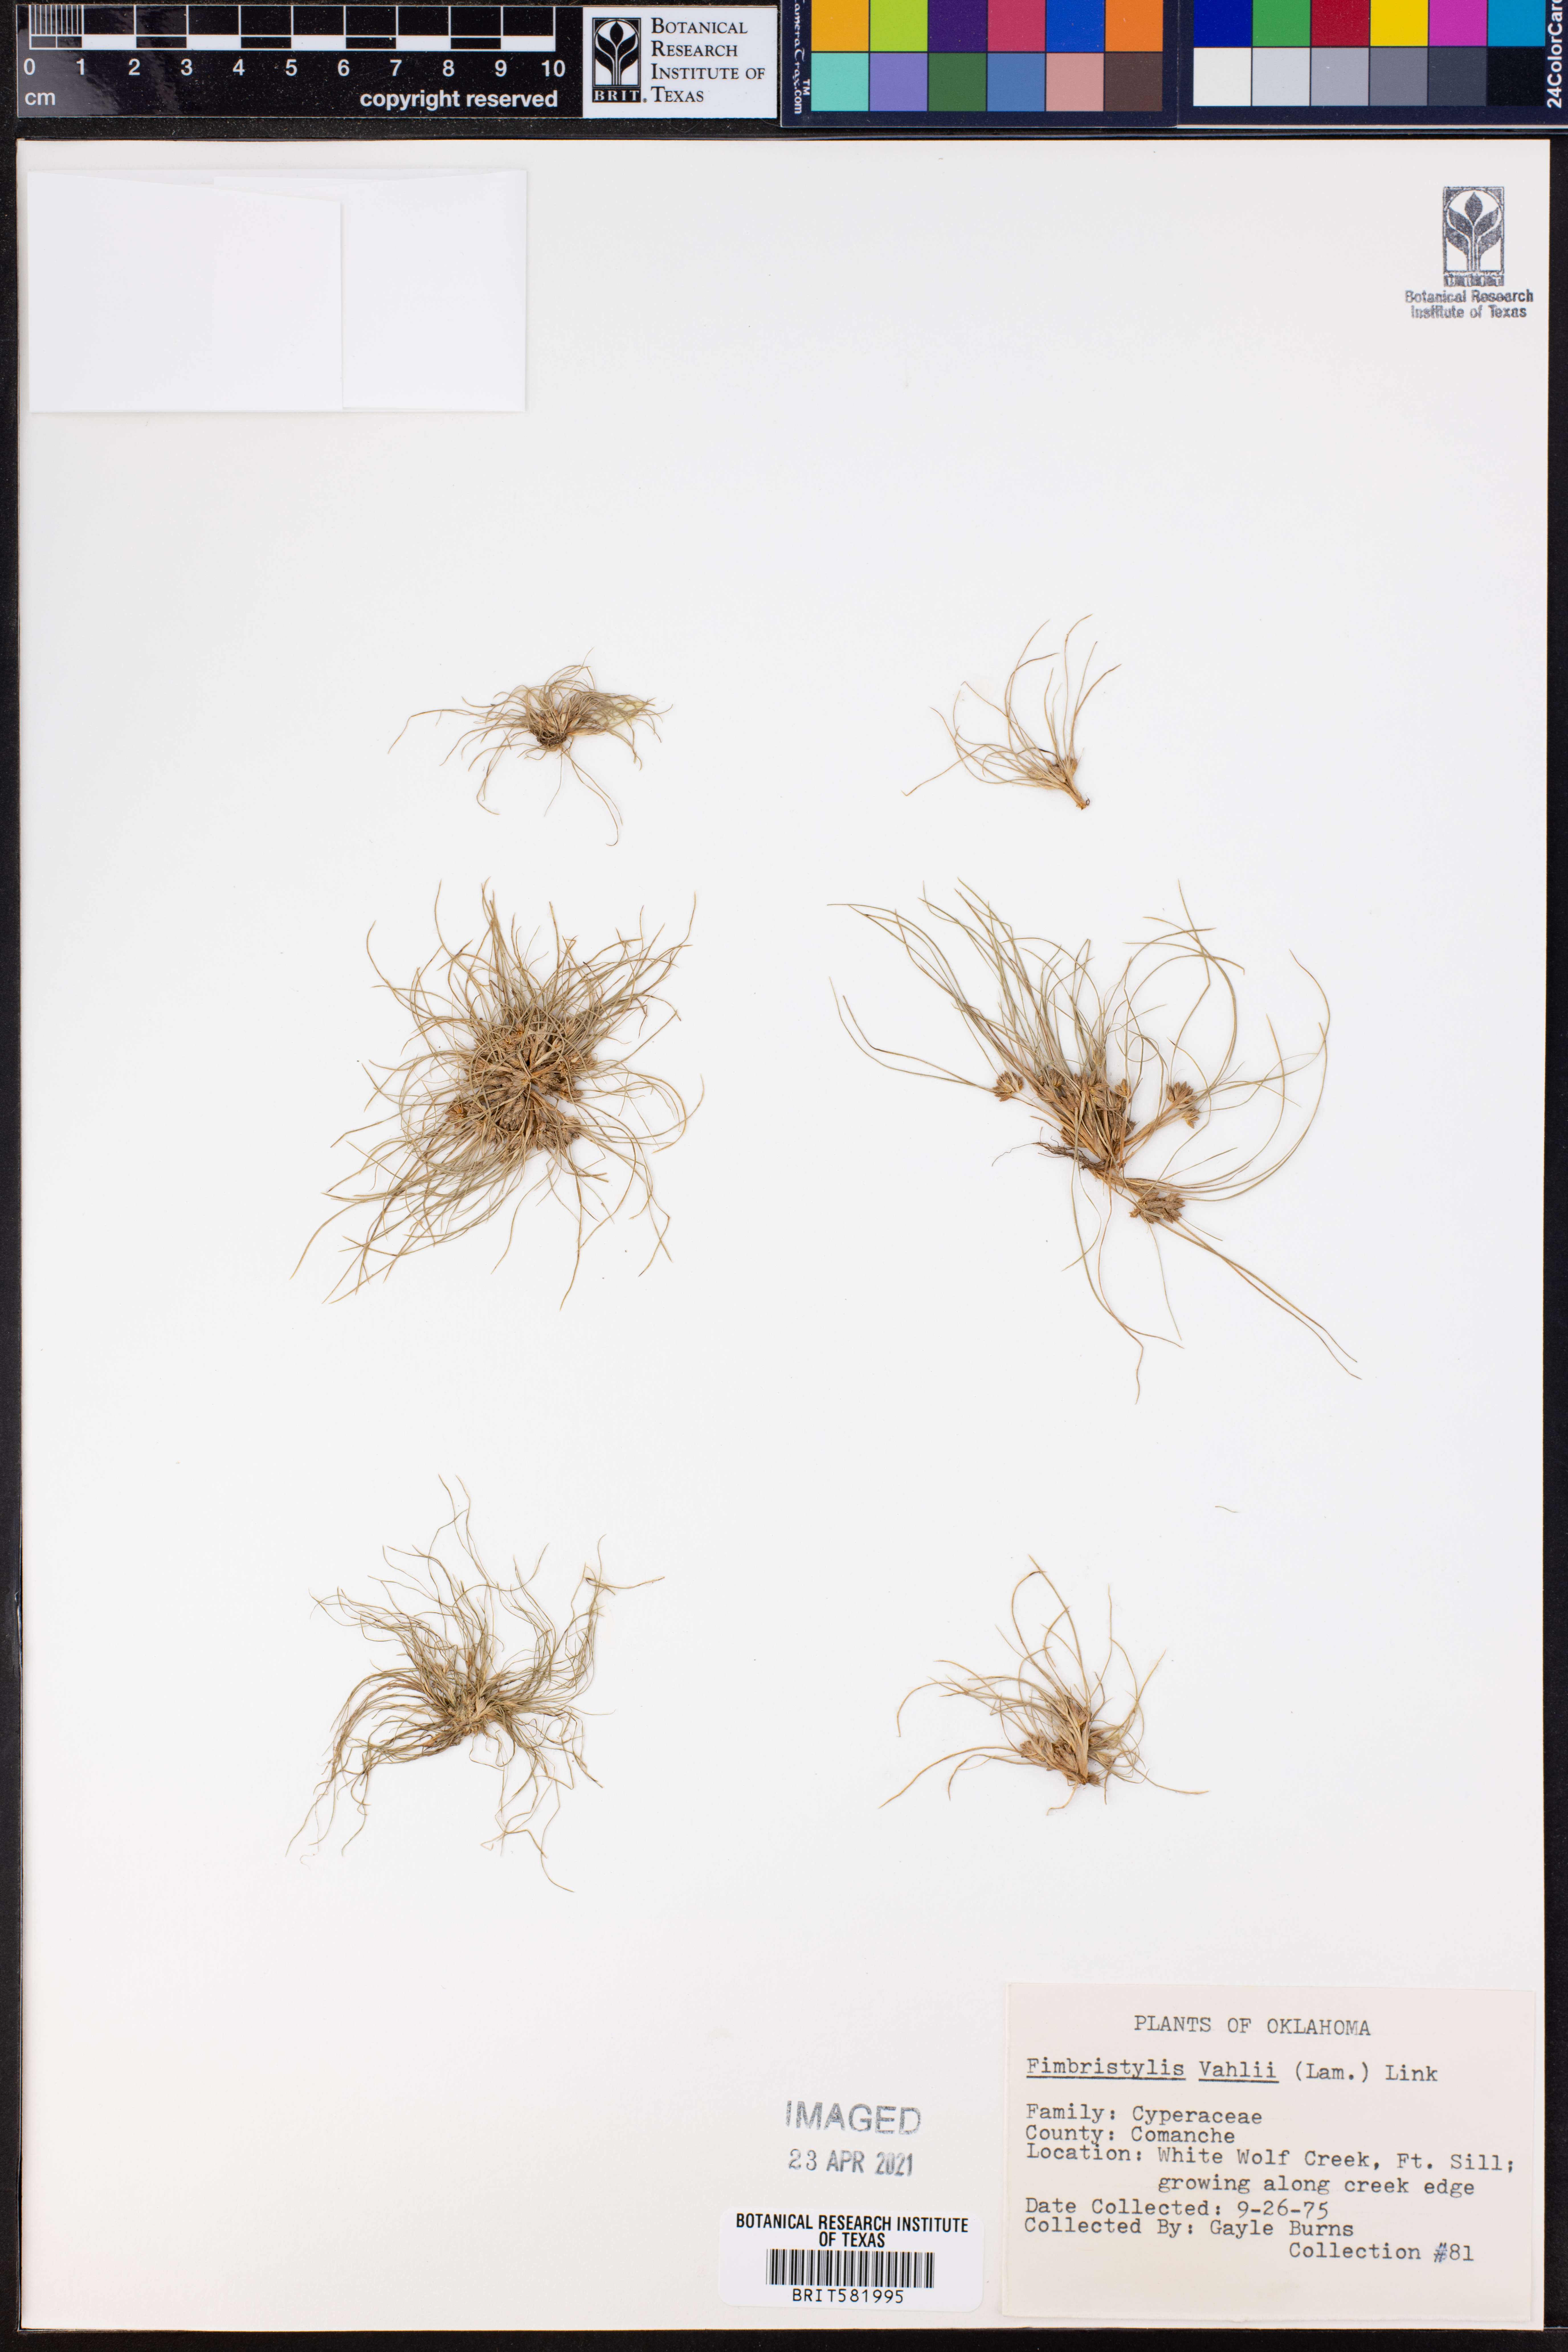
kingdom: Plantae
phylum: Tracheophyta
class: Liliopsida
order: Poales
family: Cyperaceae
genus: Fimbristylis
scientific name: Fimbristylis vahlii
